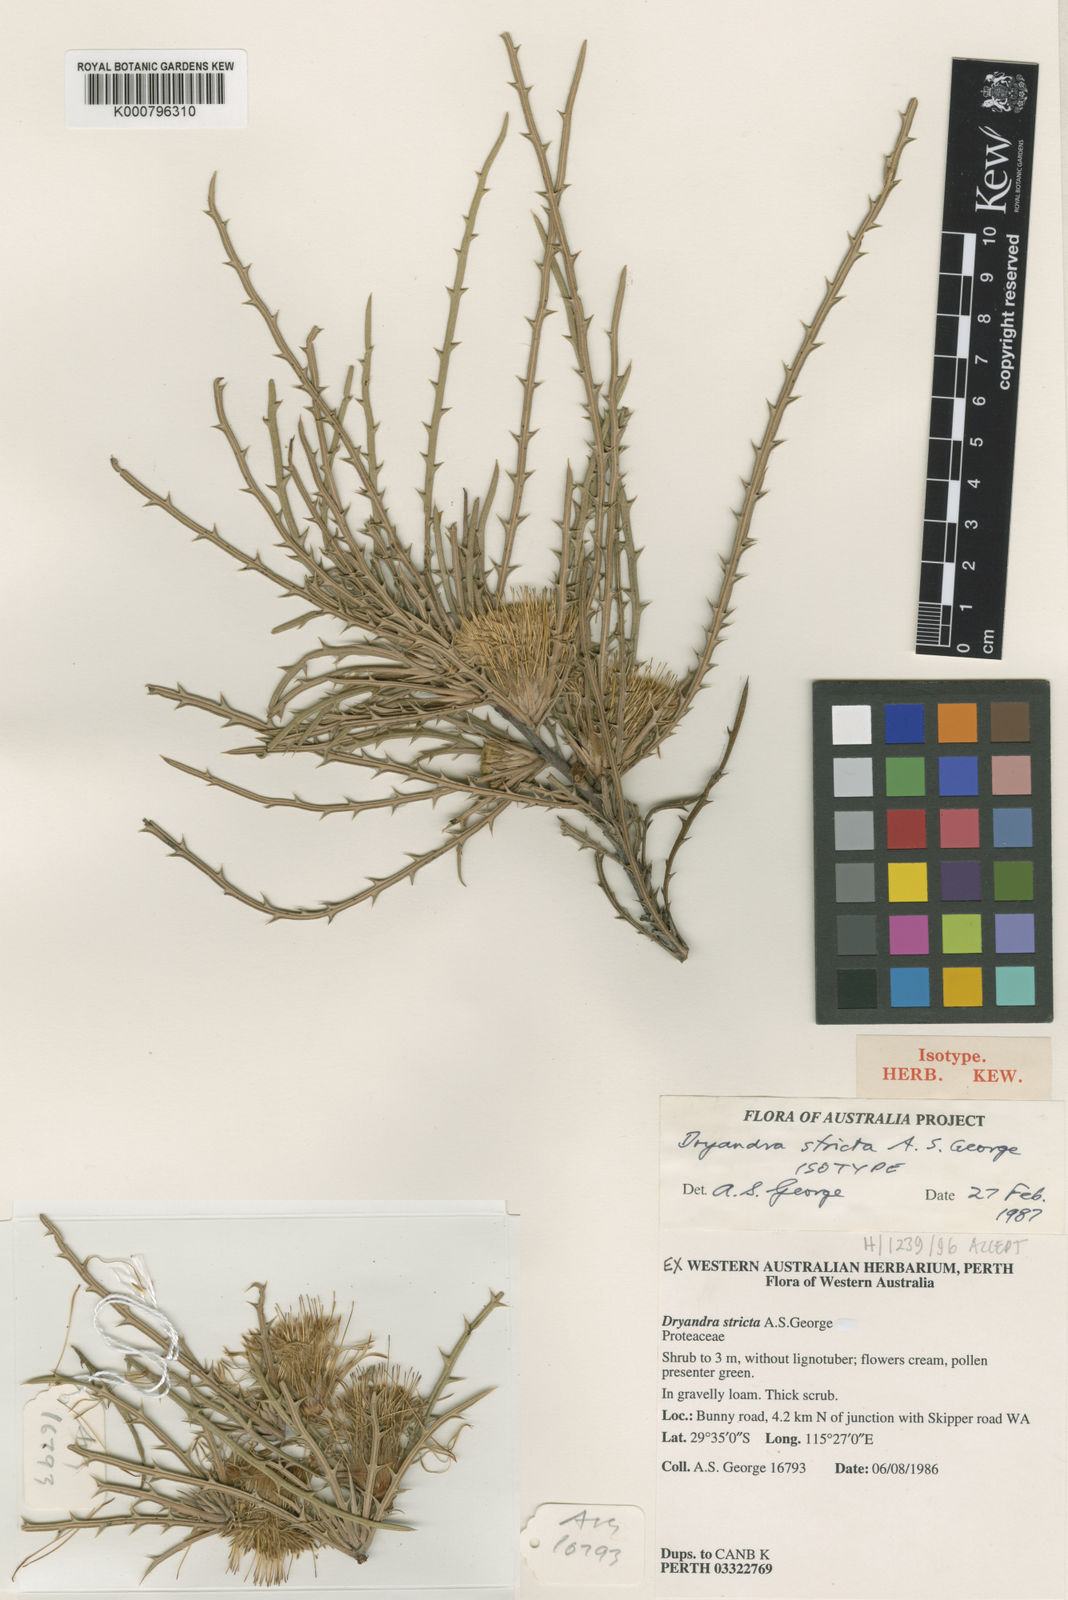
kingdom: Plantae
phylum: Tracheophyta
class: Magnoliopsida
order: Proteales
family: Proteaceae
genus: Banksia
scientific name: Banksia strictifolia
